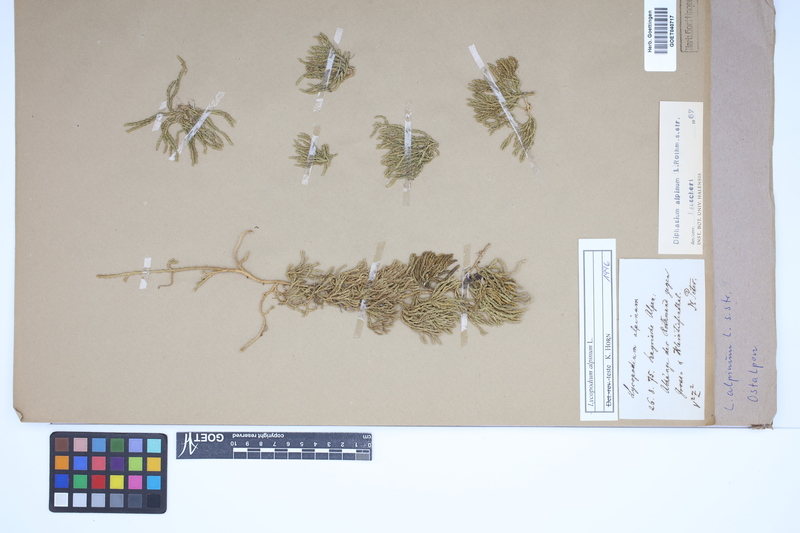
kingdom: Plantae
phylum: Tracheophyta
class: Lycopodiopsida
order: Lycopodiales
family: Lycopodiaceae
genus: Diphasiastrum
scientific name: Diphasiastrum alpinum
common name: Alpine clubmoss
